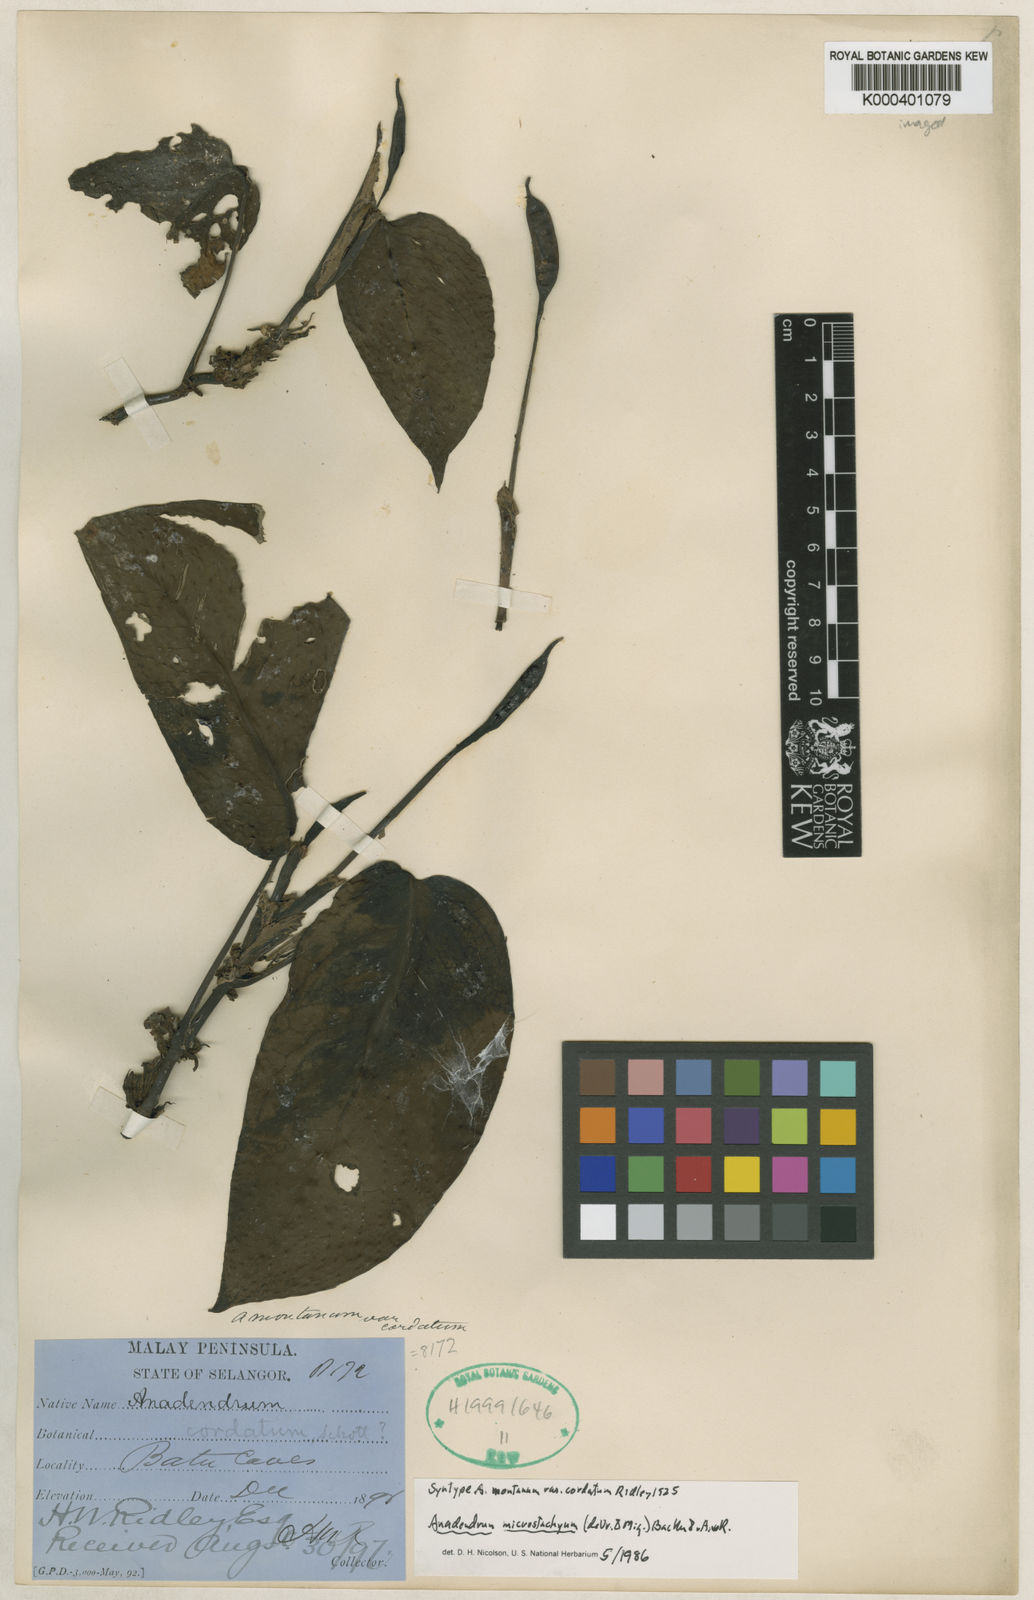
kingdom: Plantae
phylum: Tracheophyta
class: Liliopsida
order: Alismatales
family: Araceae
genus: Anadendrum
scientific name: Anadendrum microstachyum
